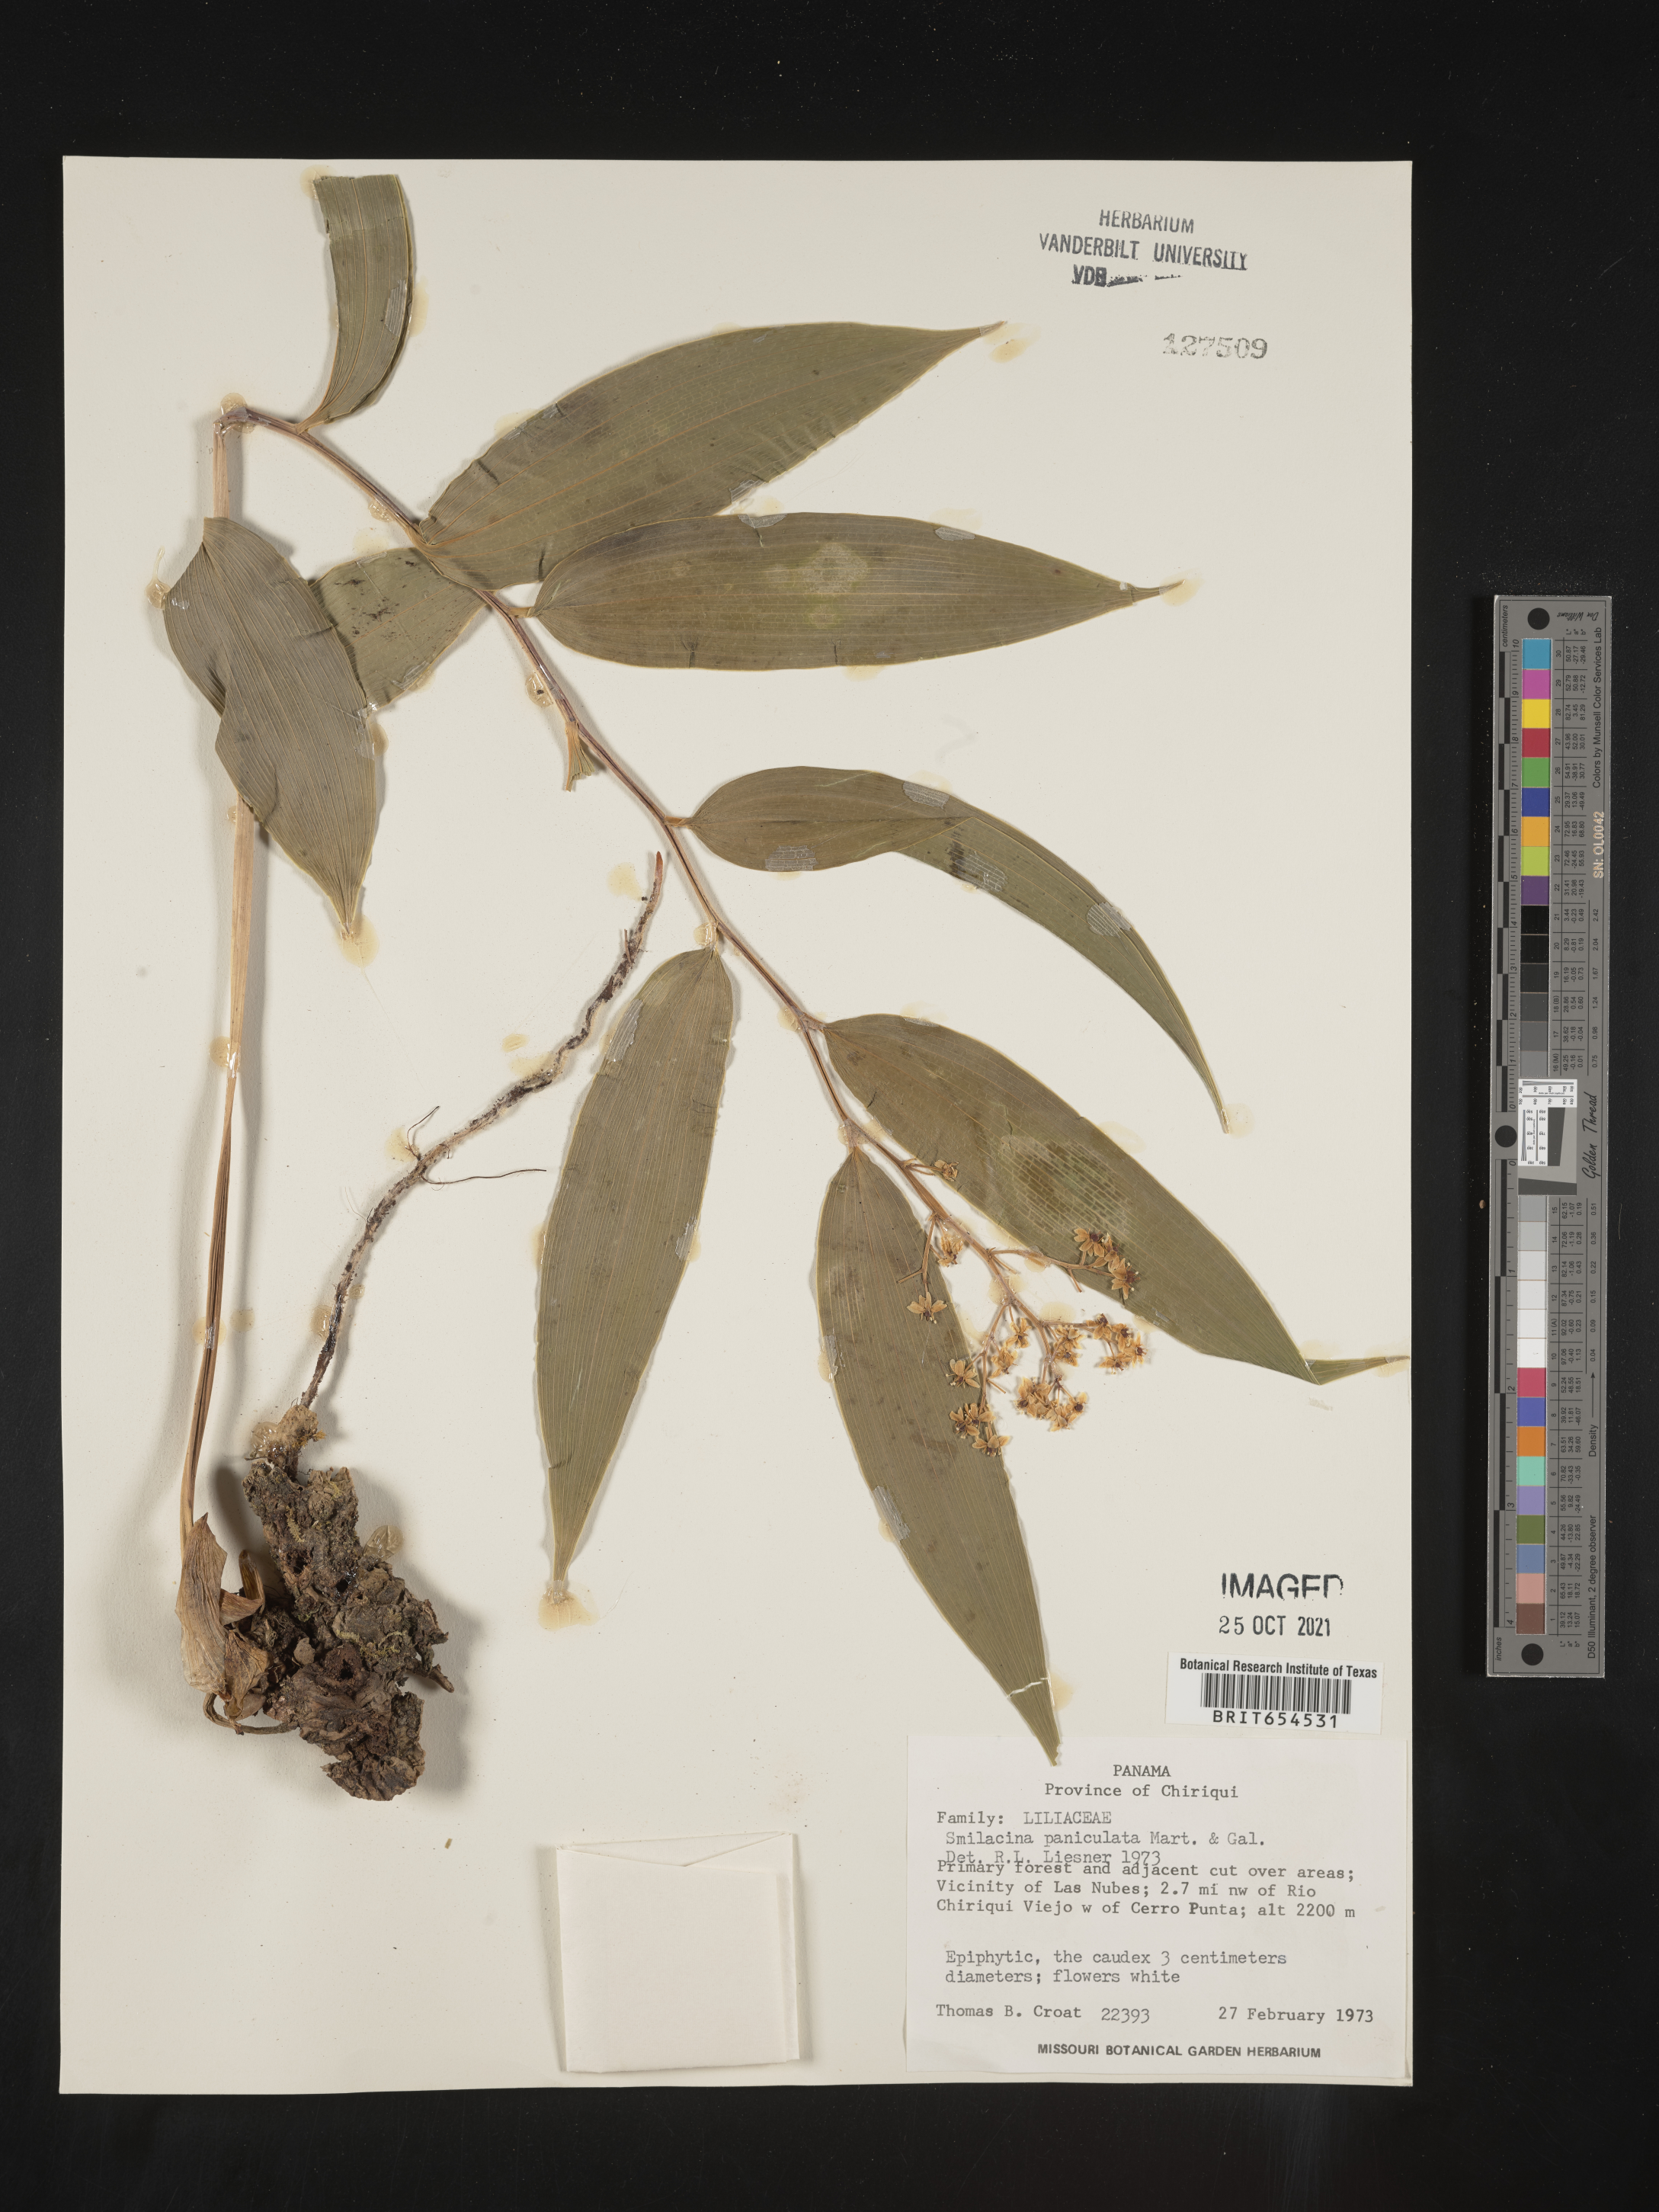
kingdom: Plantae
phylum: Tracheophyta
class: Liliopsida
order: Asparagales
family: Asparagaceae
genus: Maianthemum
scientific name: Maianthemum tatsienense
